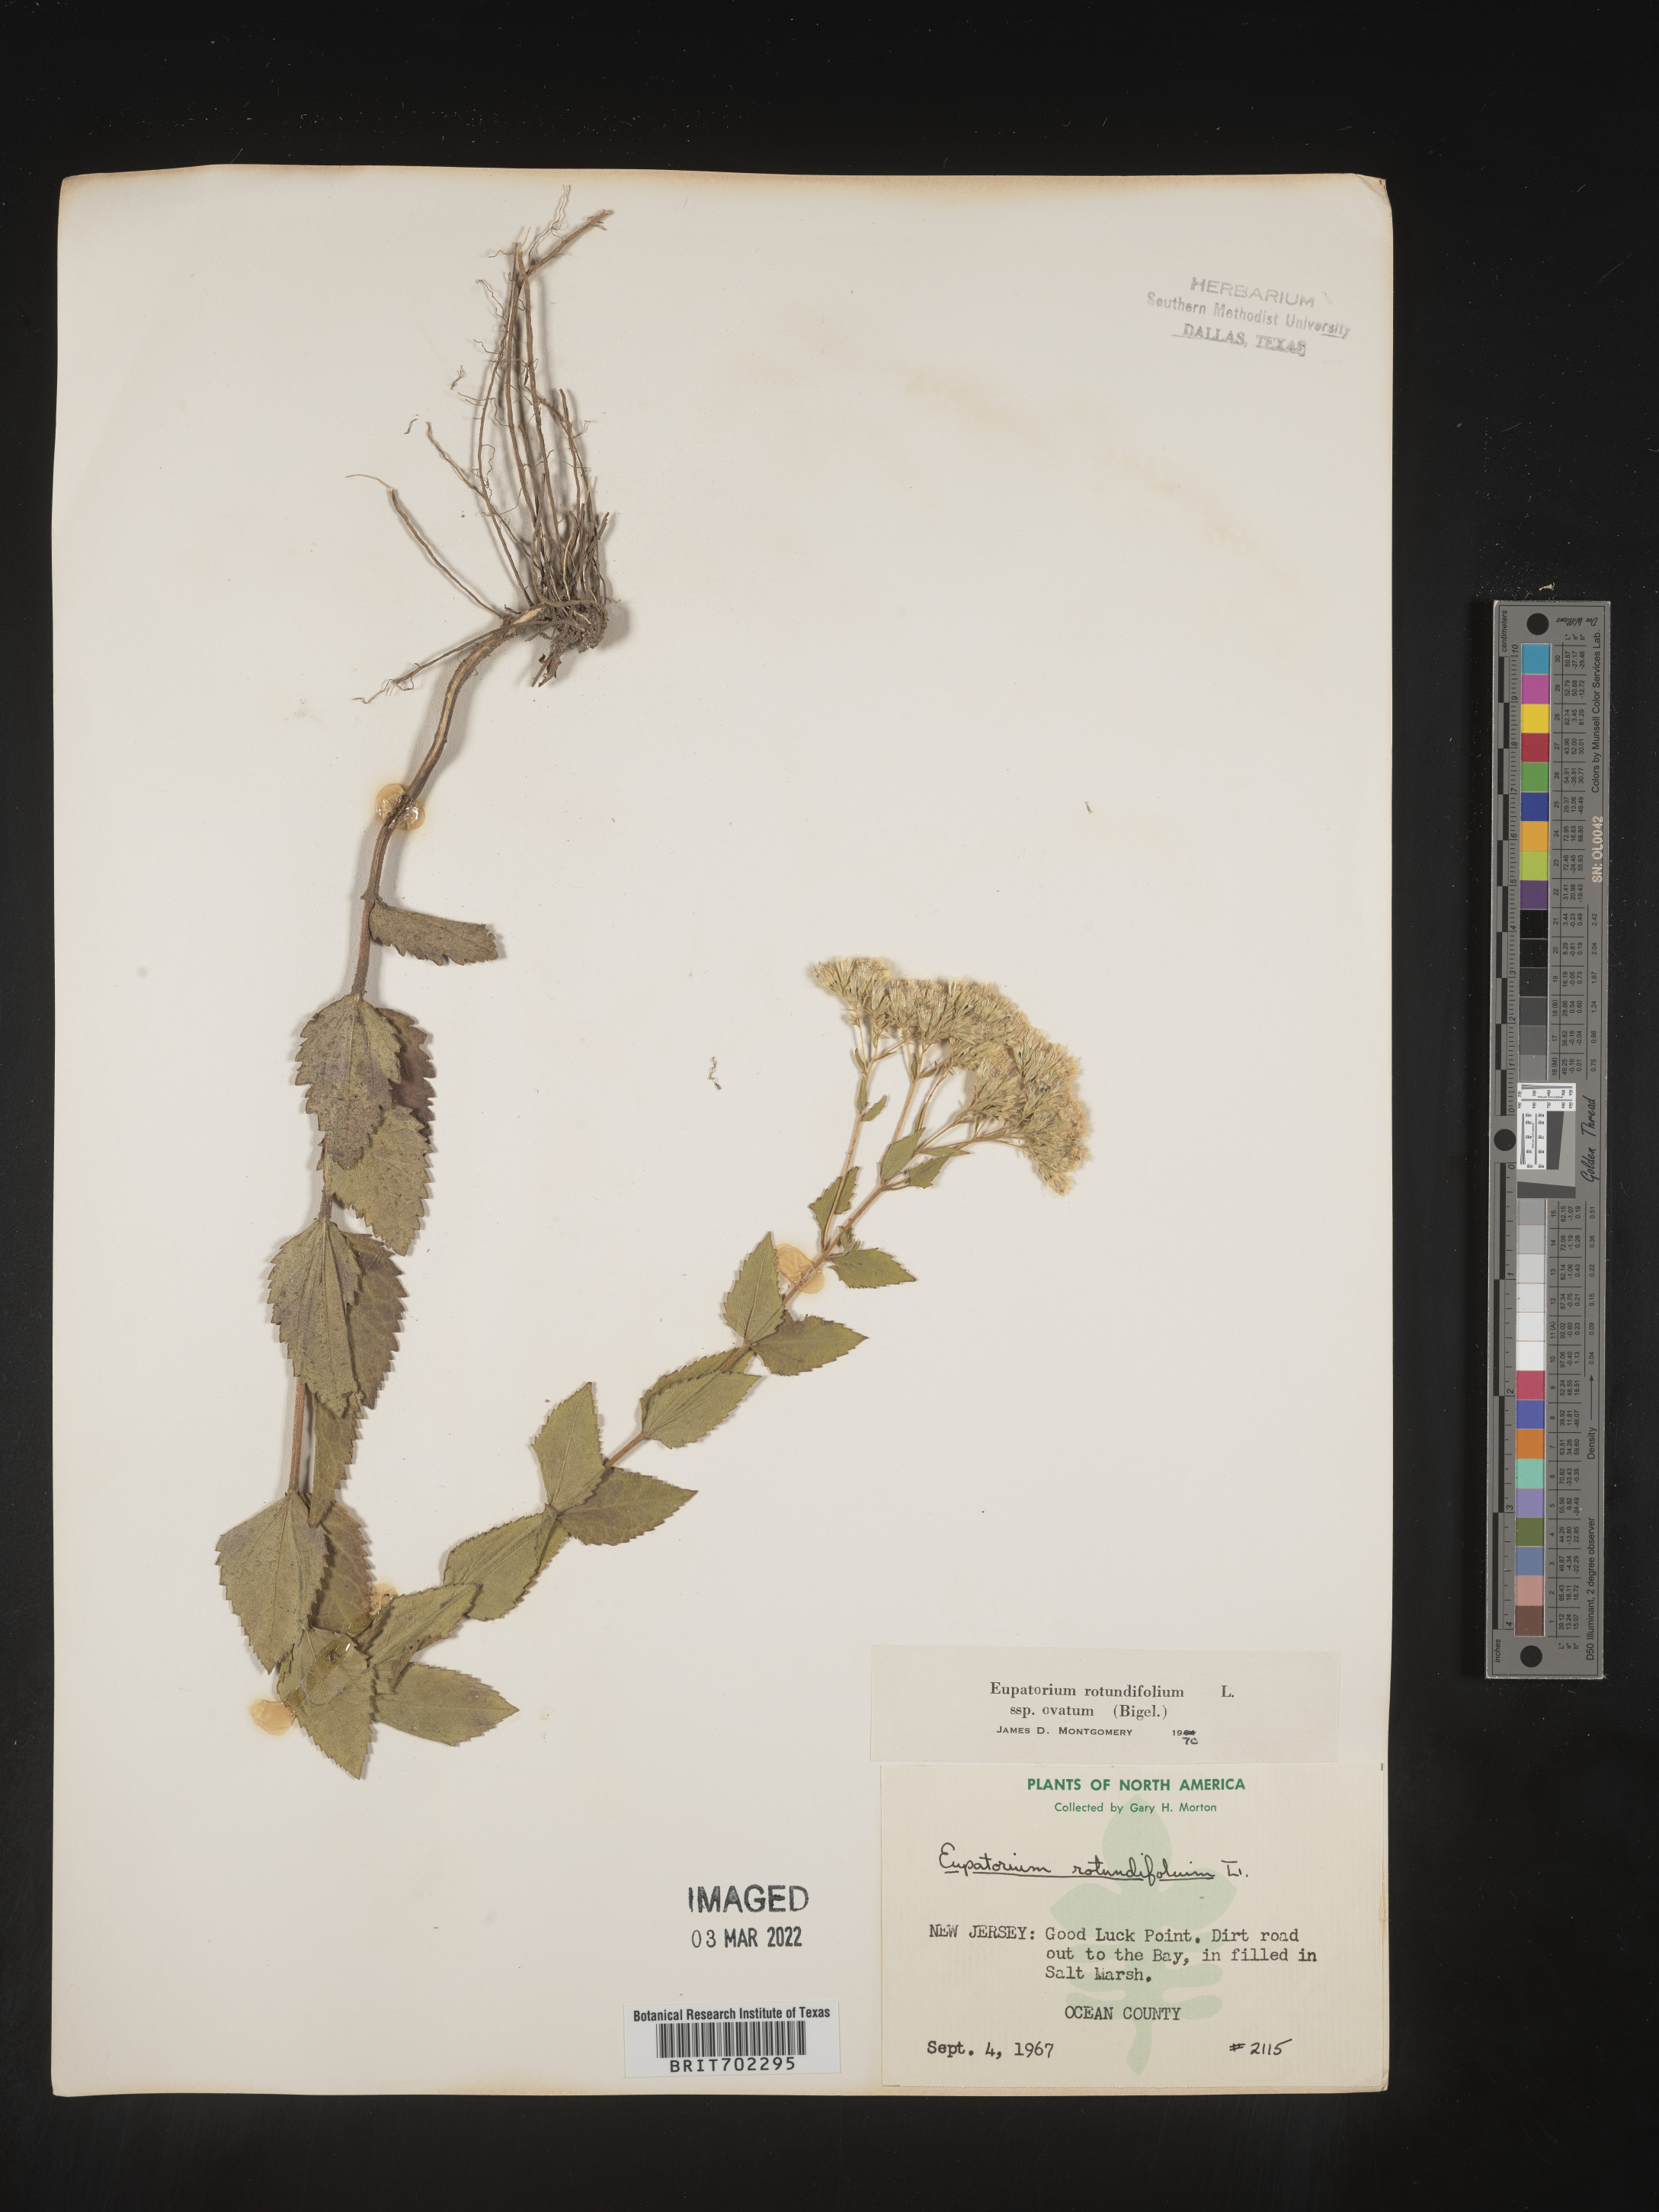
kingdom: Plantae
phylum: Tracheophyta
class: Magnoliopsida
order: Asterales
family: Asteraceae
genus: Eupatorium
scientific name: Eupatorium rotundifolium
